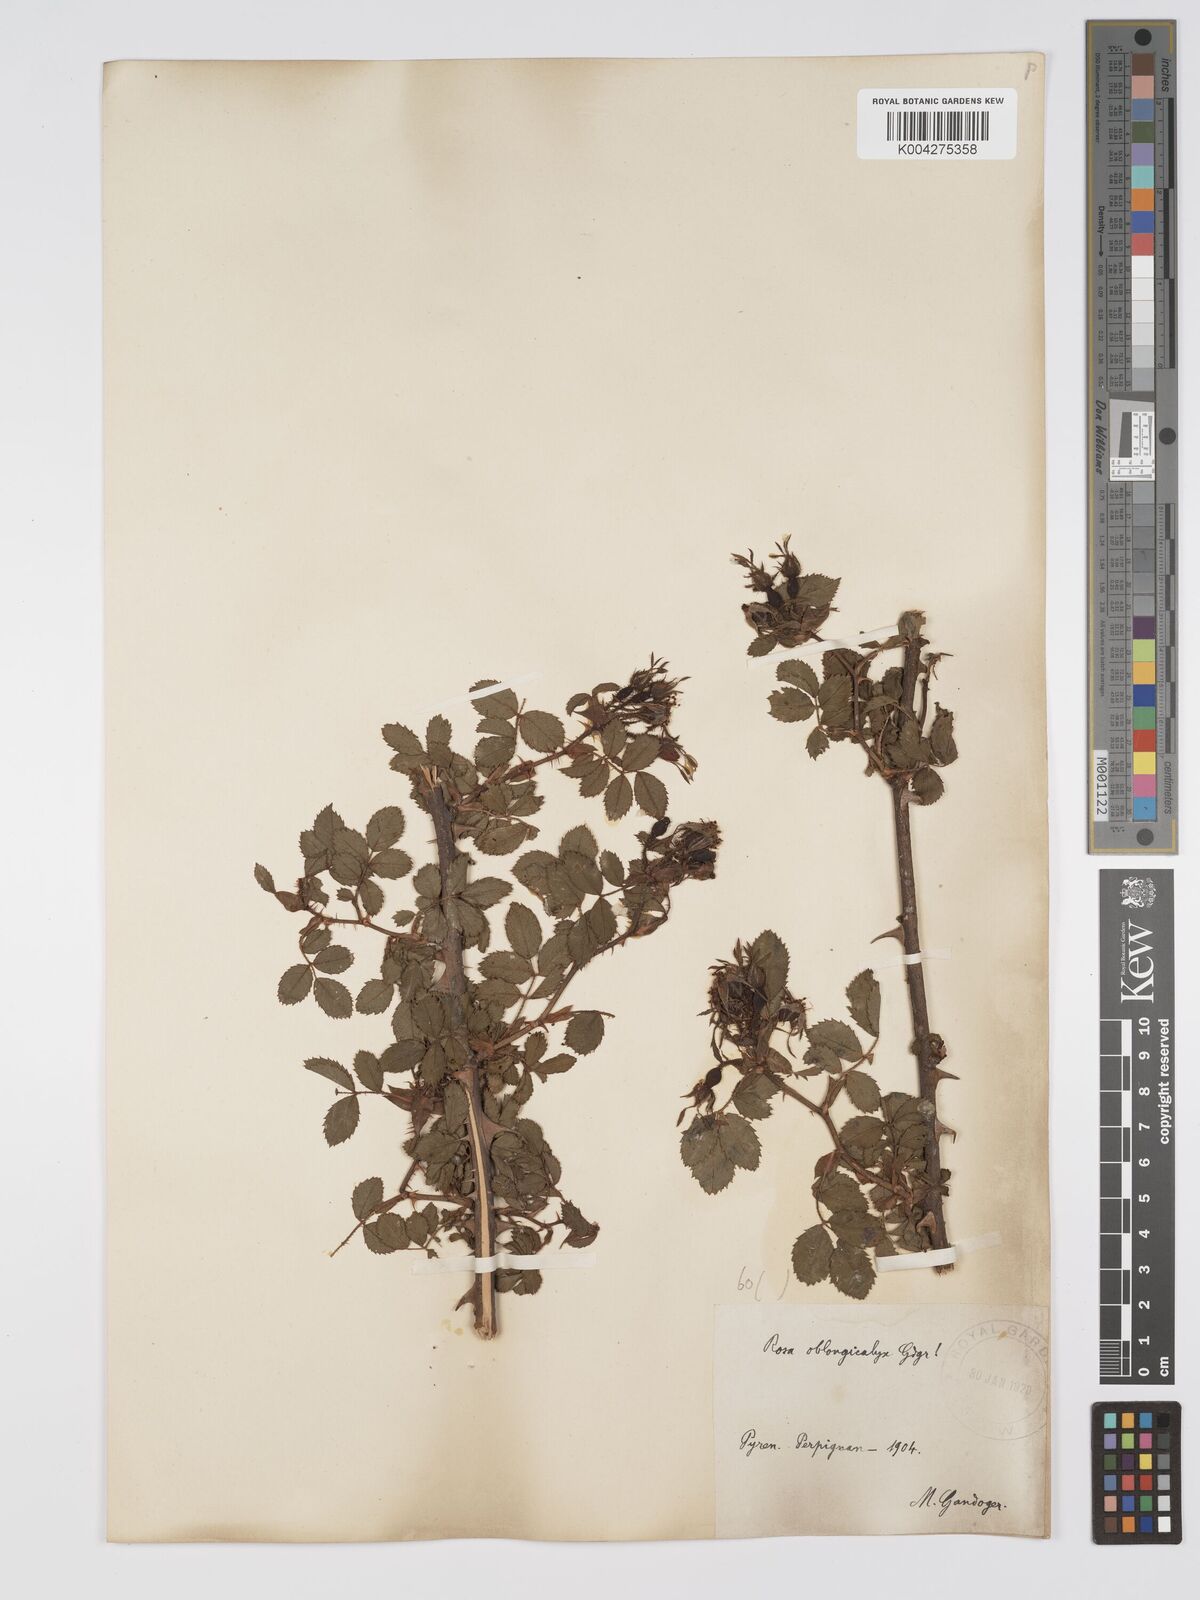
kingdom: Plantae
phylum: Tracheophyta
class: Magnoliopsida
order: Rosales
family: Rosaceae
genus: Rosa
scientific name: Rosa
